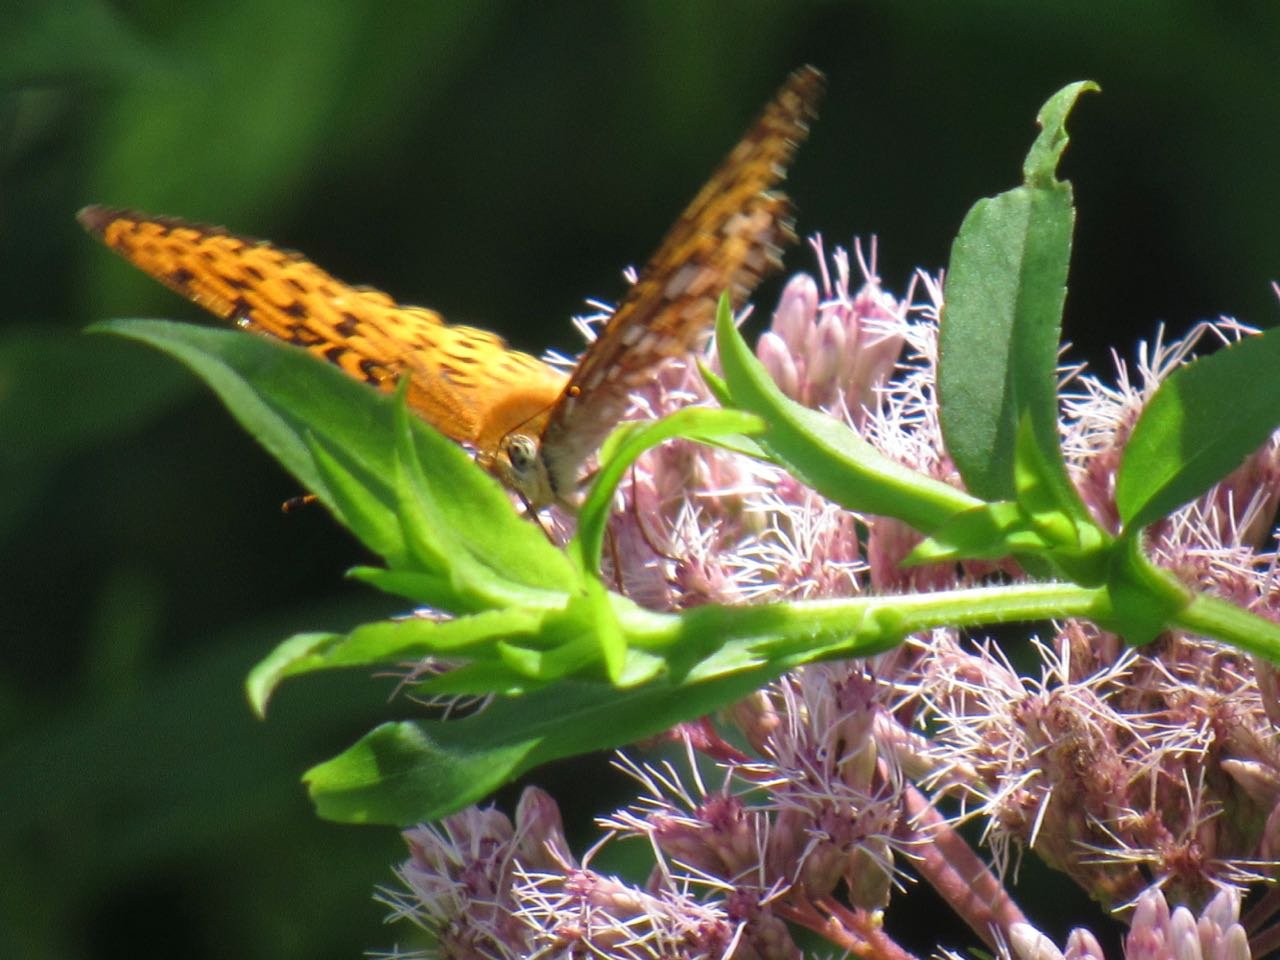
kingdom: Animalia
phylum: Arthropoda
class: Insecta
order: Lepidoptera
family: Nymphalidae
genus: Speyeria
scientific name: Speyeria atlantis
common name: Atlantis Fritillary
